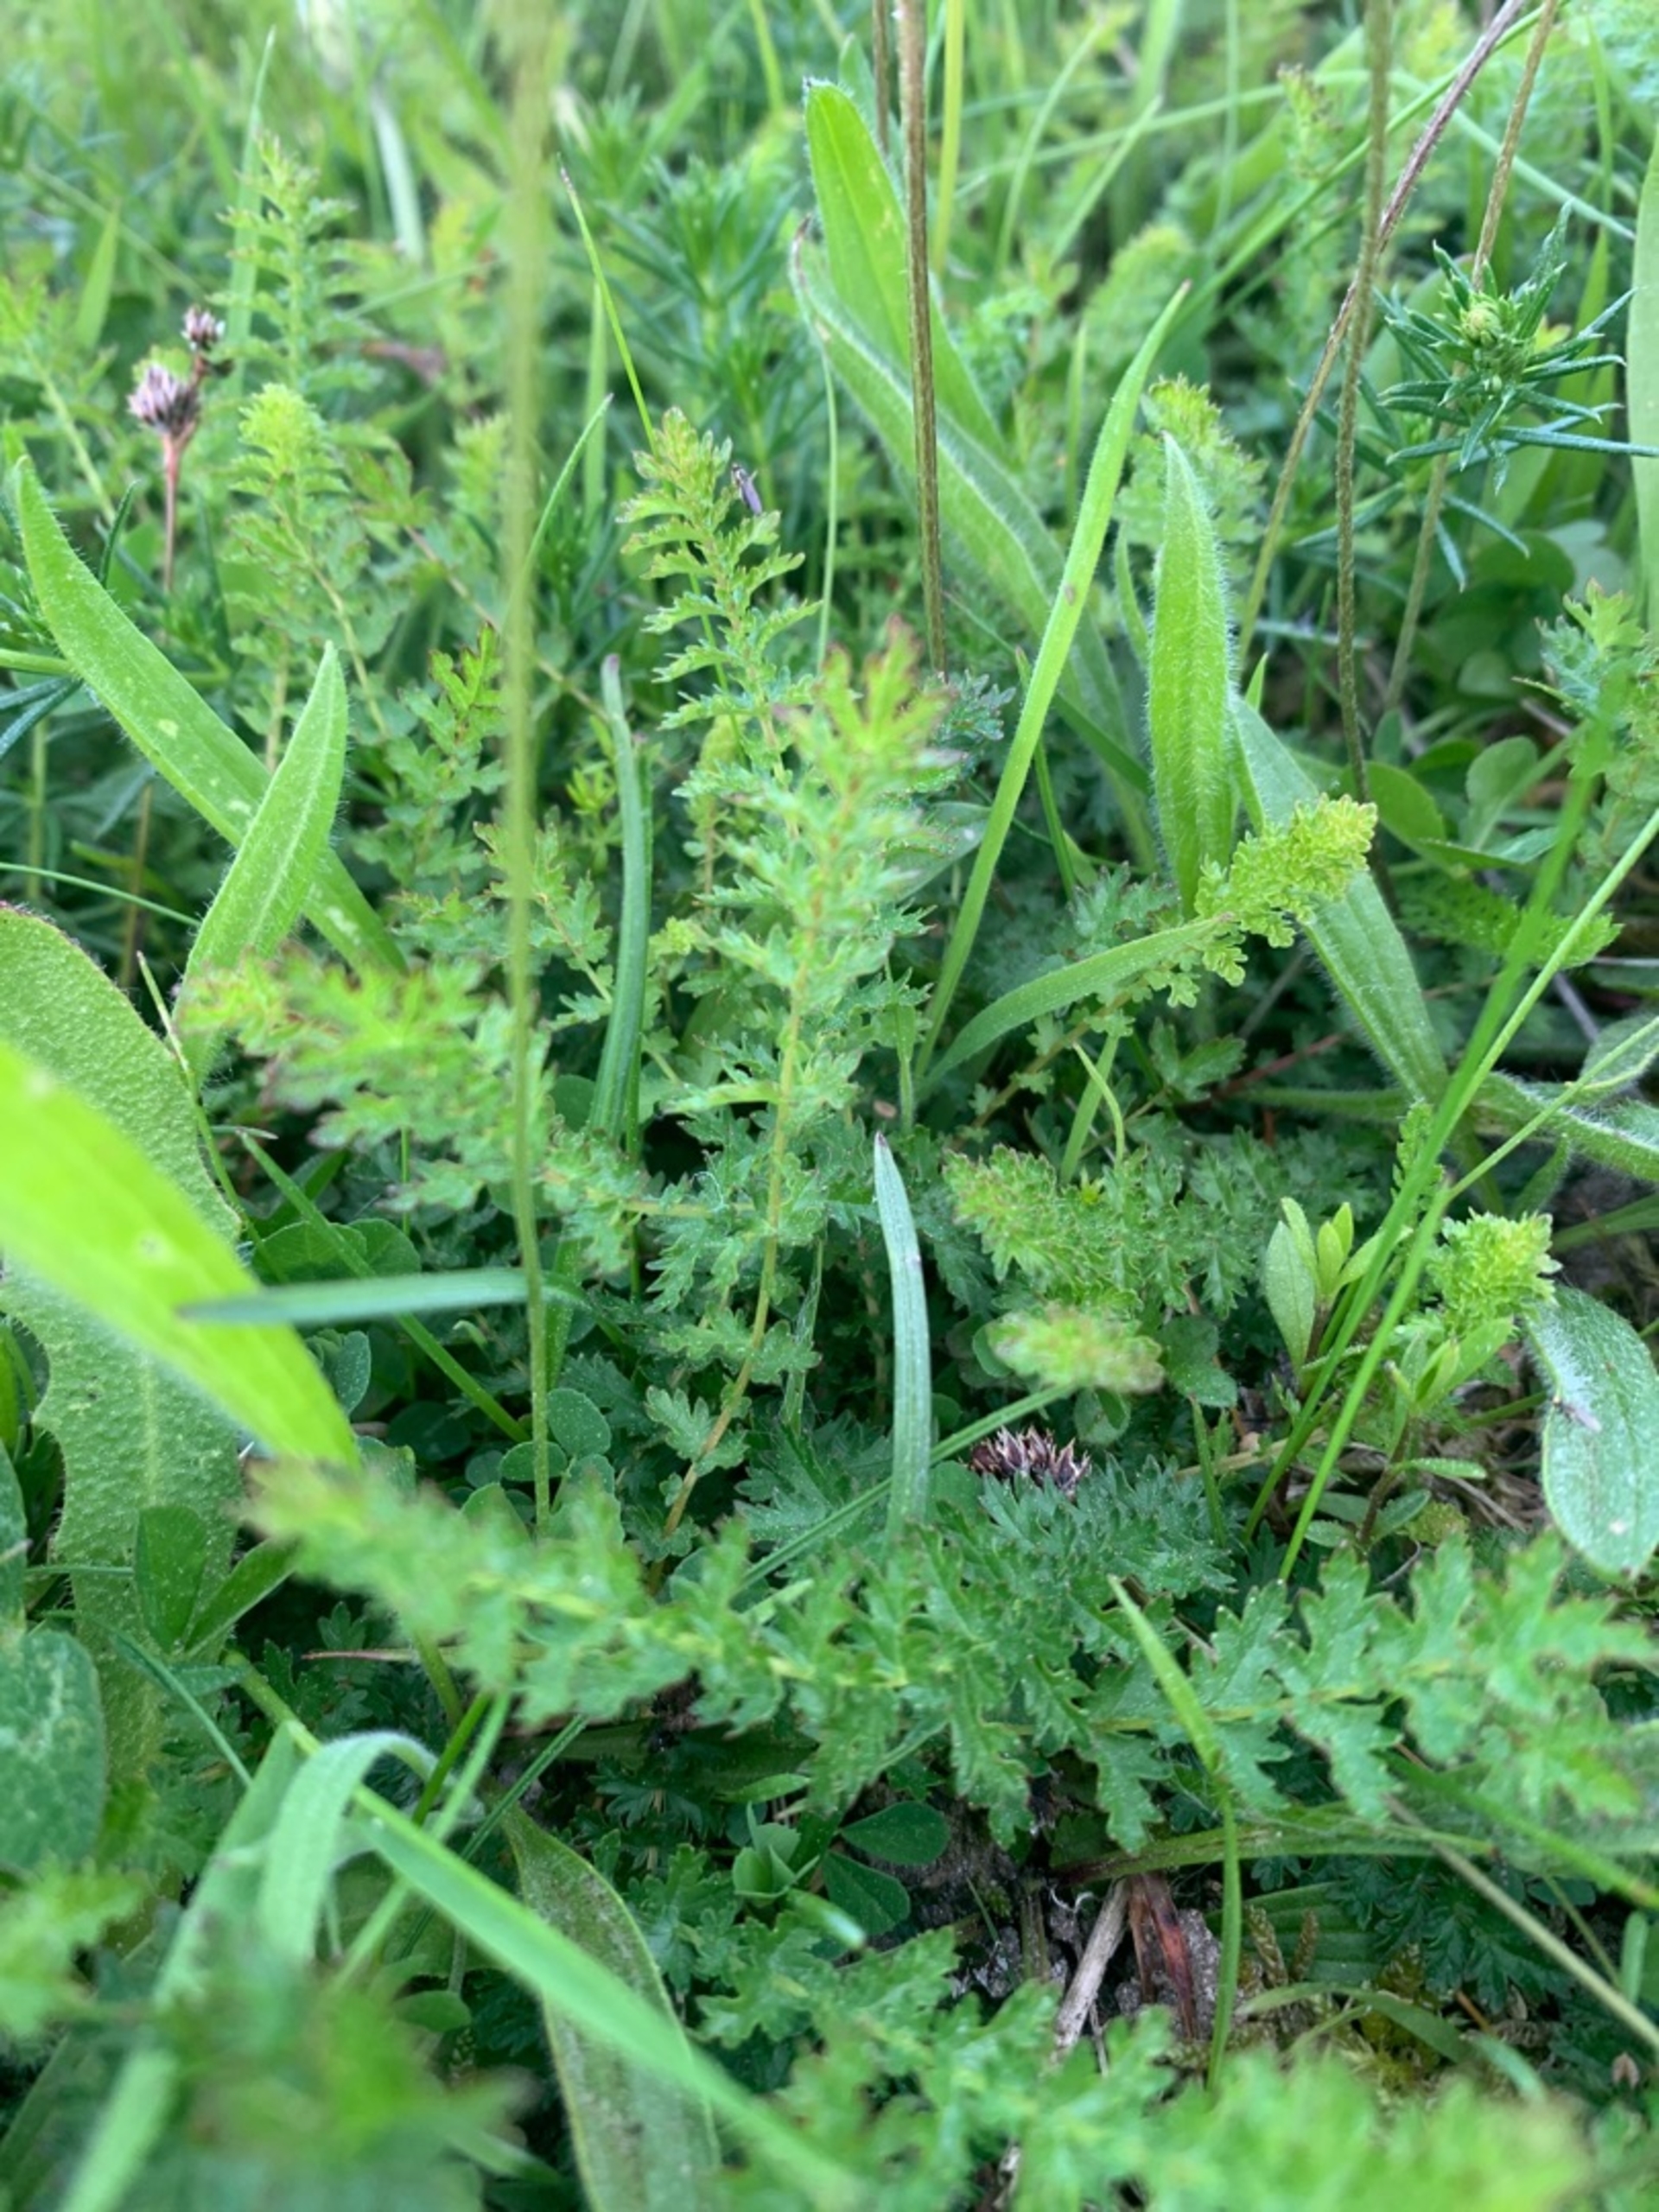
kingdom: Plantae
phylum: Tracheophyta
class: Magnoliopsida
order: Rosales
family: Rosaceae
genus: Filipendula
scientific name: Filipendula vulgaris
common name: Knoldet mjødurt
